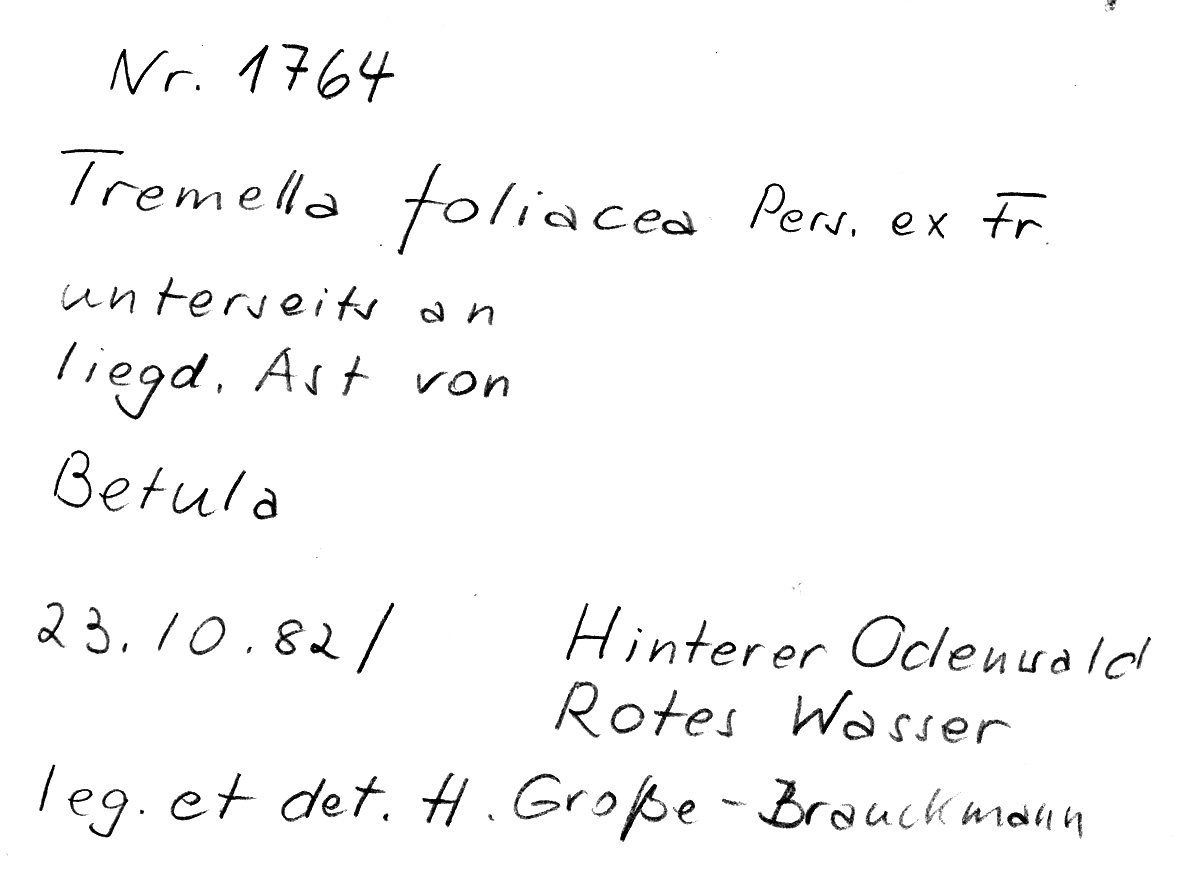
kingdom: Plantae
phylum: Tracheophyta
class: Magnoliopsida
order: Fagales
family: Betulaceae
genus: Betula
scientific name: Betula
